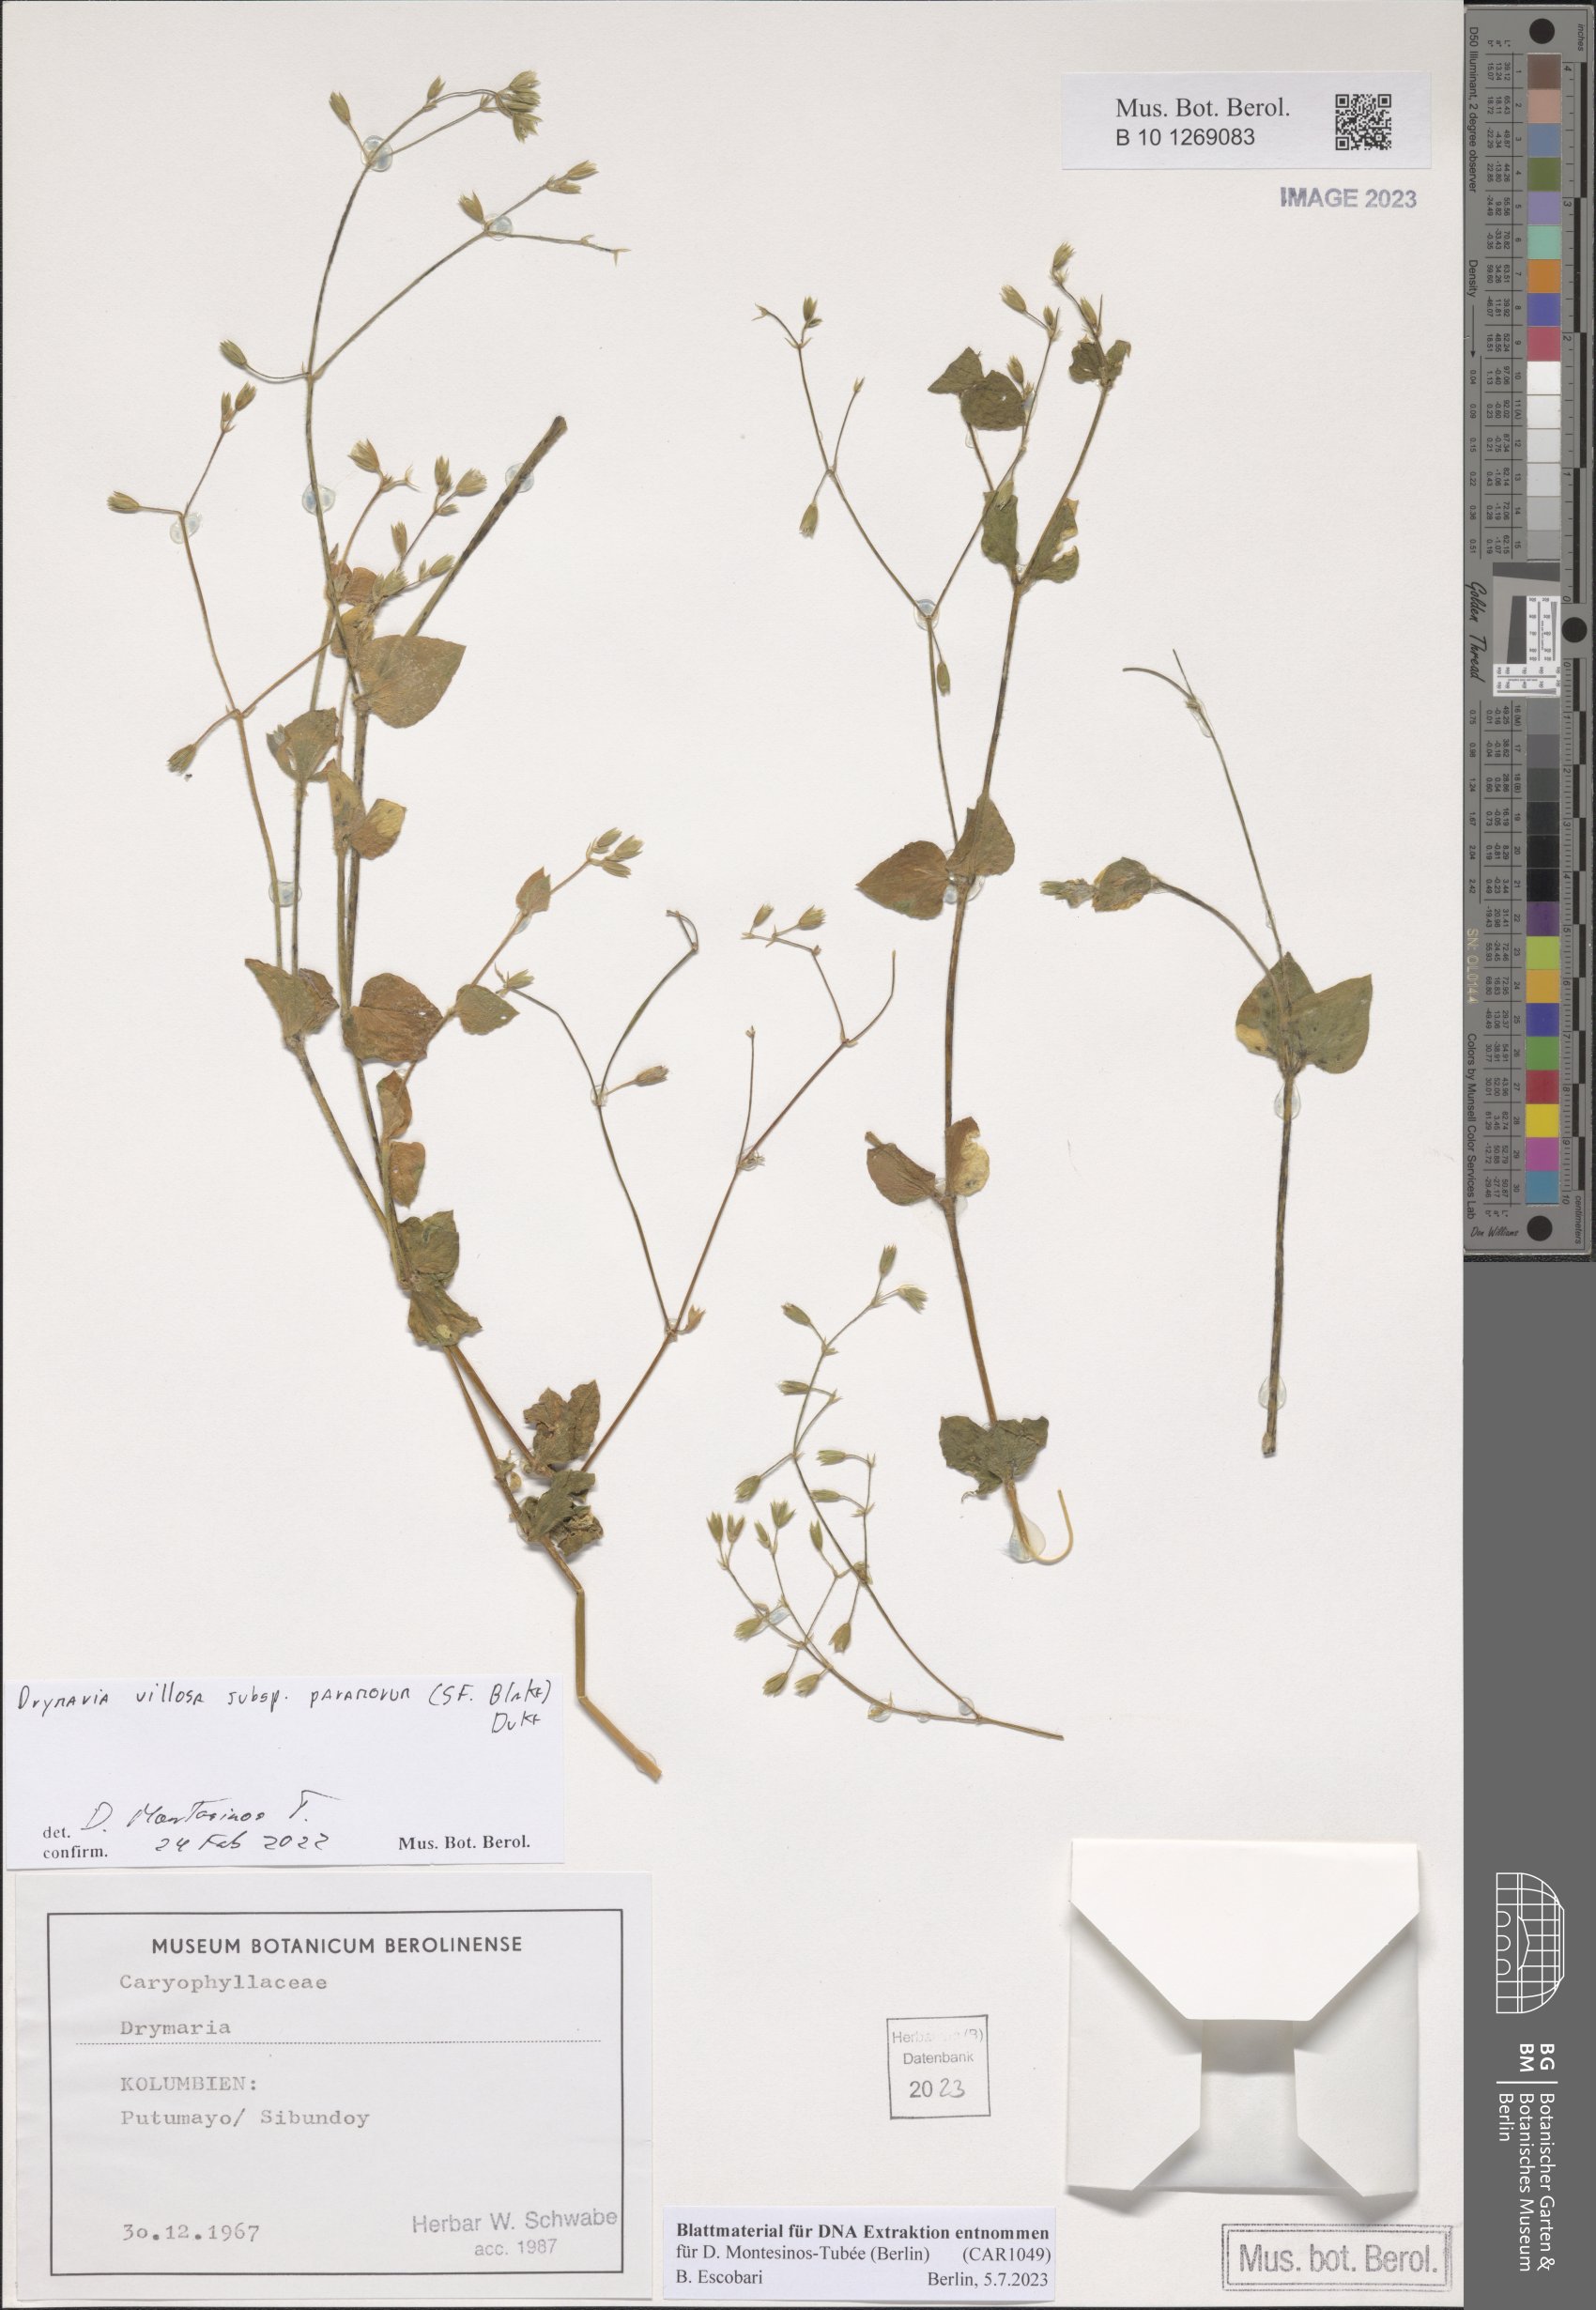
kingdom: Plantae
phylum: Tracheophyta
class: Magnoliopsida
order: Caryophyllales
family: Caryophyllaceae
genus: Drymaria
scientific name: Drymaria villosa
